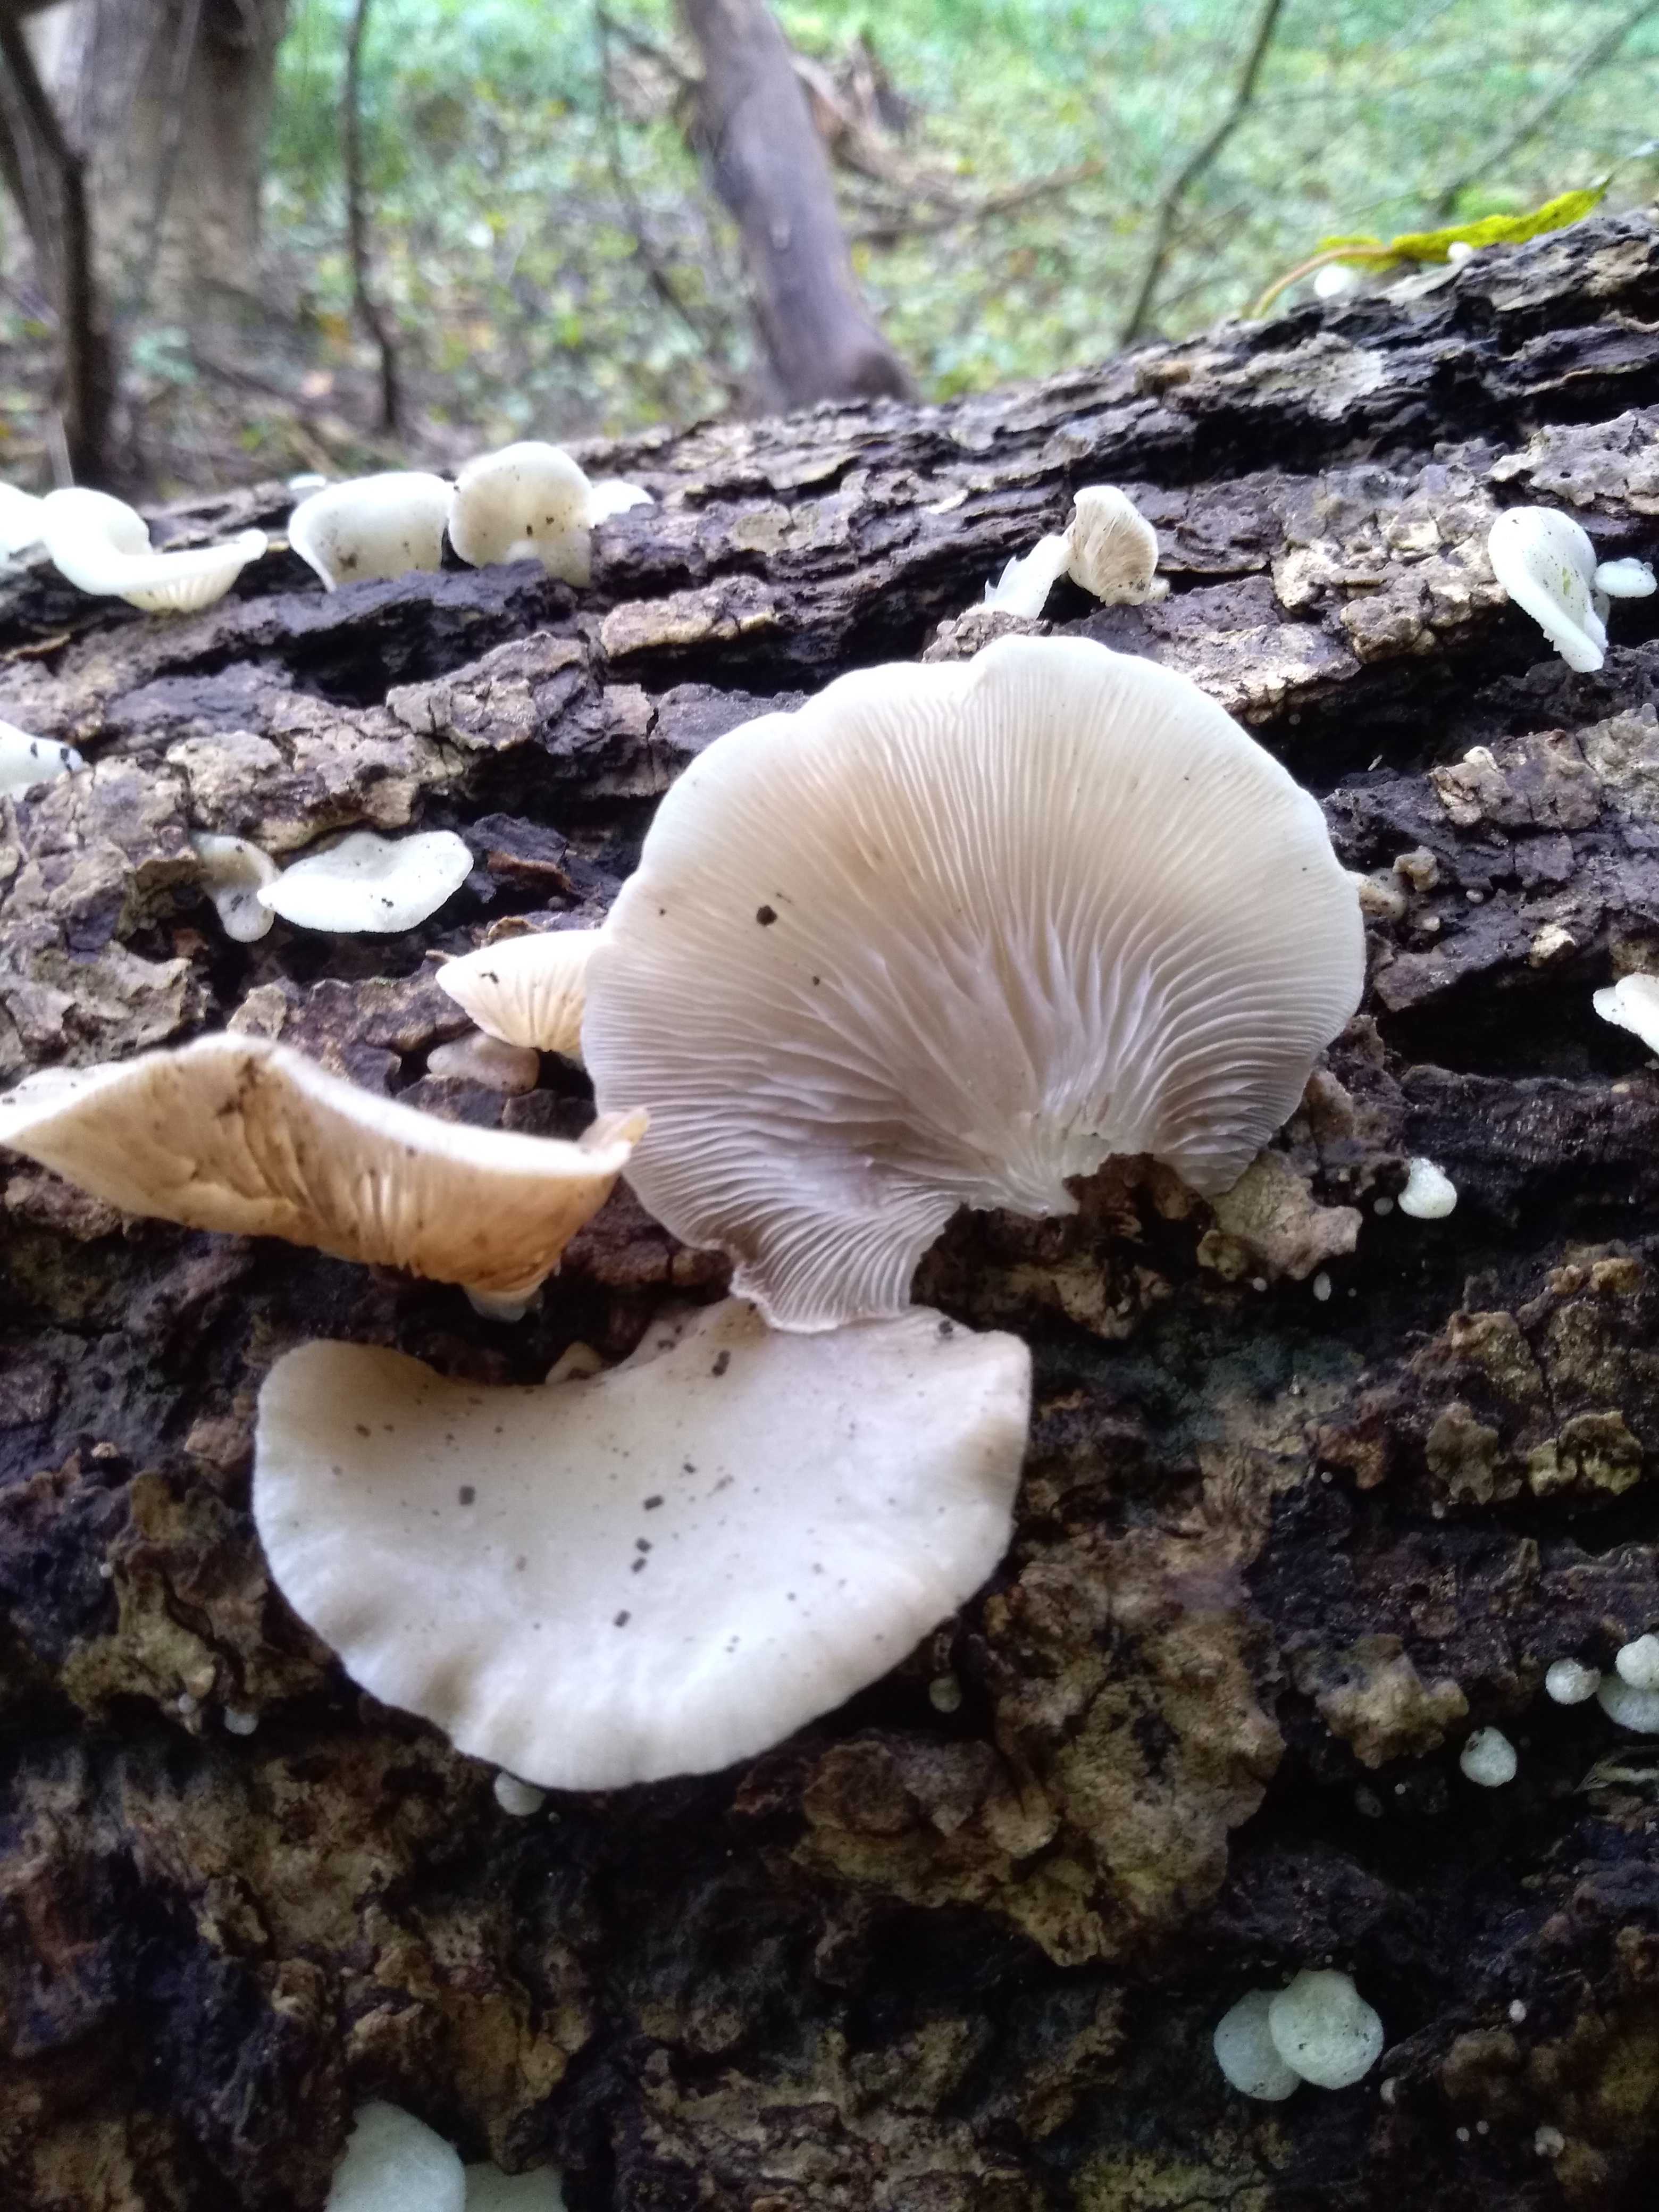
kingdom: Fungi
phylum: Basidiomycota
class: Agaricomycetes
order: Agaricales
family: Crepidotaceae
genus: Crepidotus
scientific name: Crepidotus mollis
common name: blød muslingesvamp
